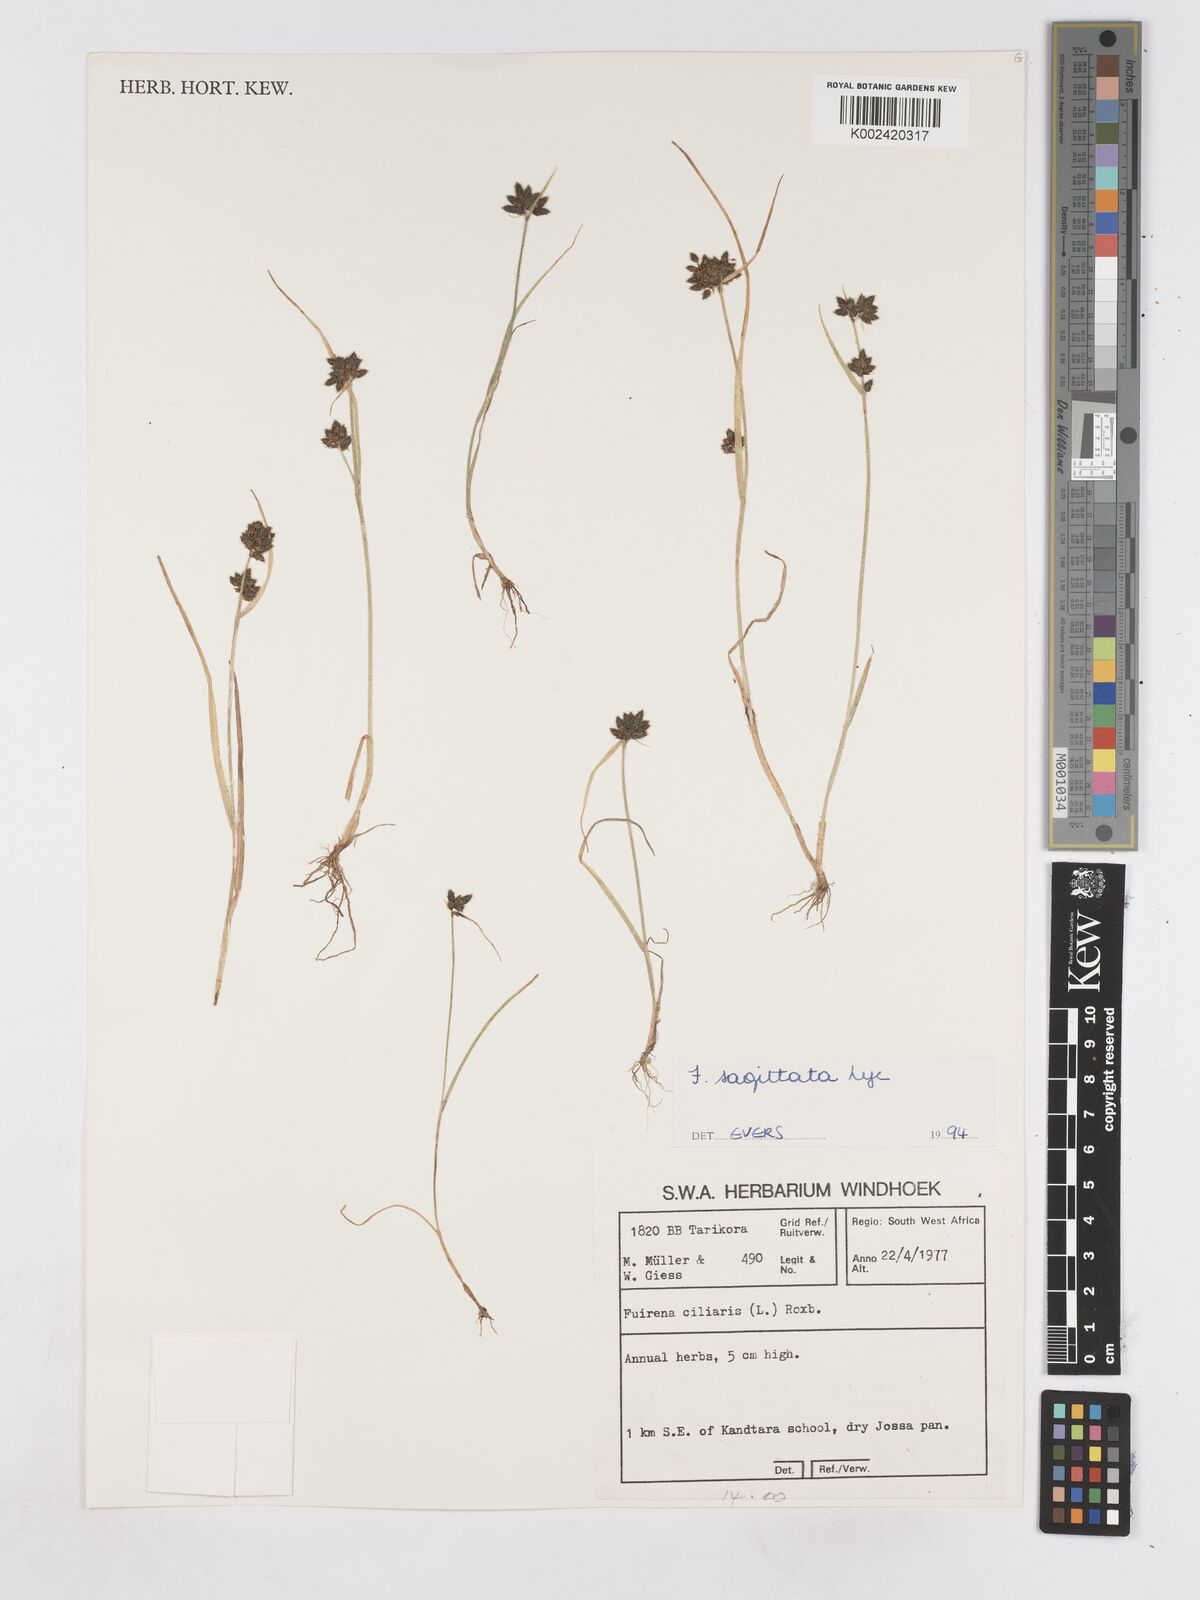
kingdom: Plantae
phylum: Tracheophyta
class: Liliopsida
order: Poales
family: Cyperaceae
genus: Fuirena
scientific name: Fuirena sagittata
